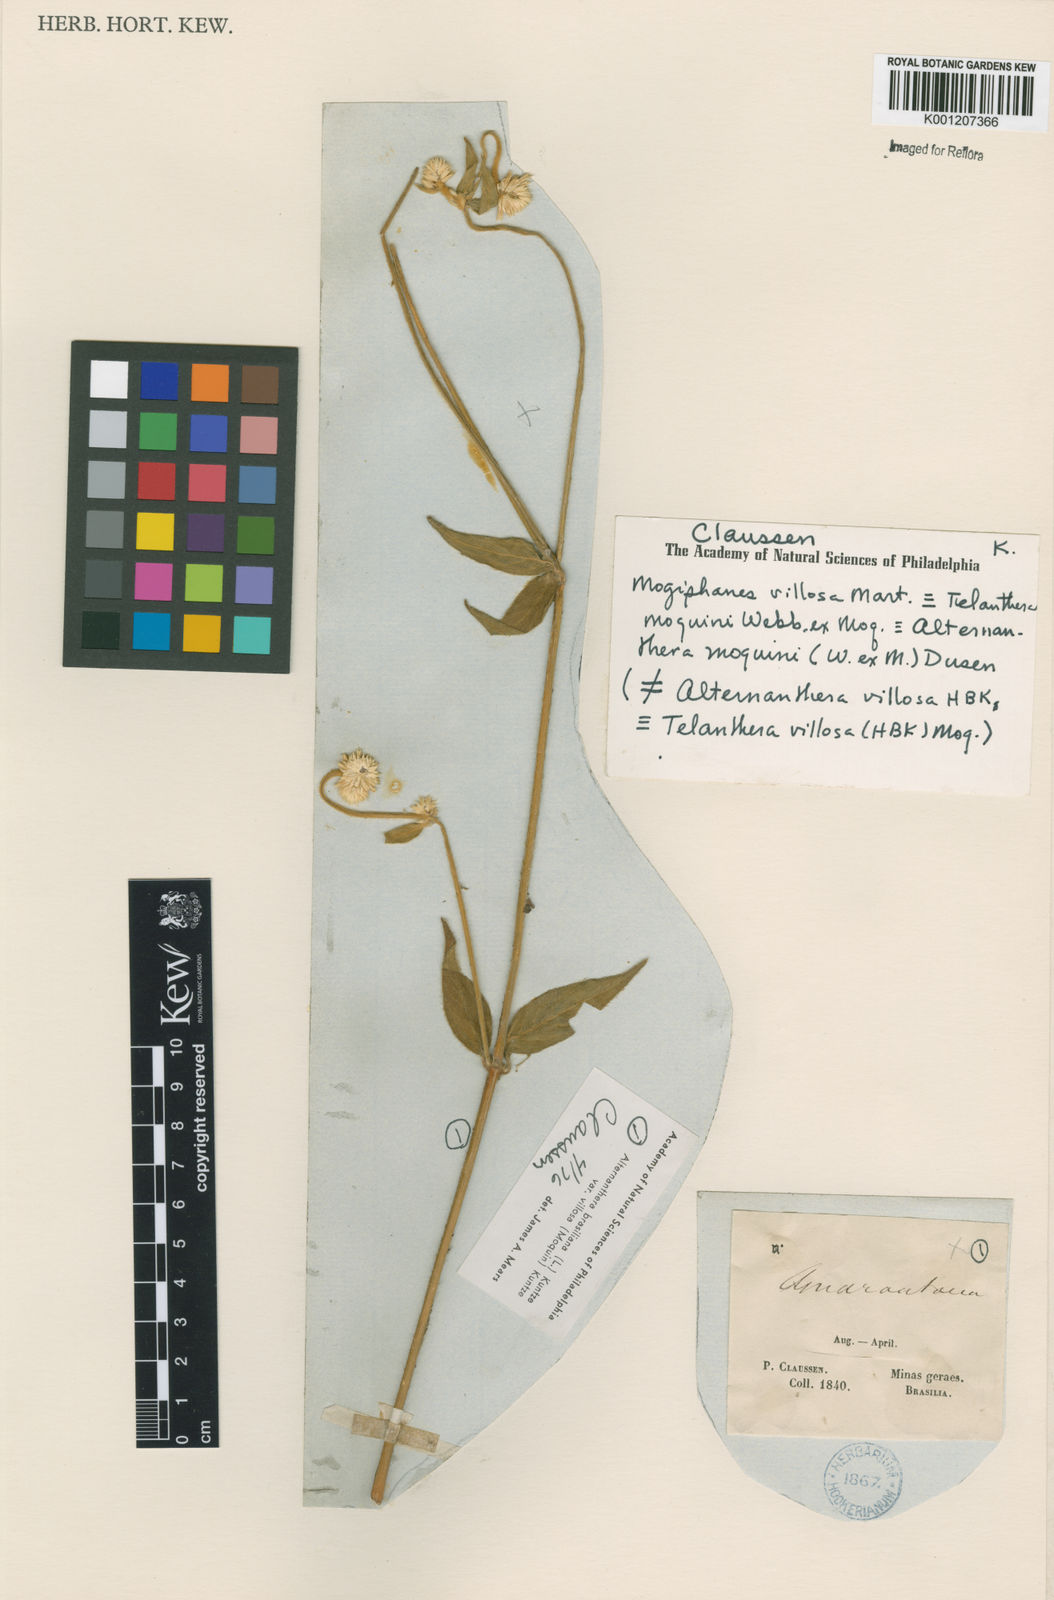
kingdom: Plantae
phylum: Tracheophyta
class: Magnoliopsida
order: Caryophyllales
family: Amaranthaceae
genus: Alternanthera
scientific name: Alternanthera brasiliana
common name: Brazilian joyweed
